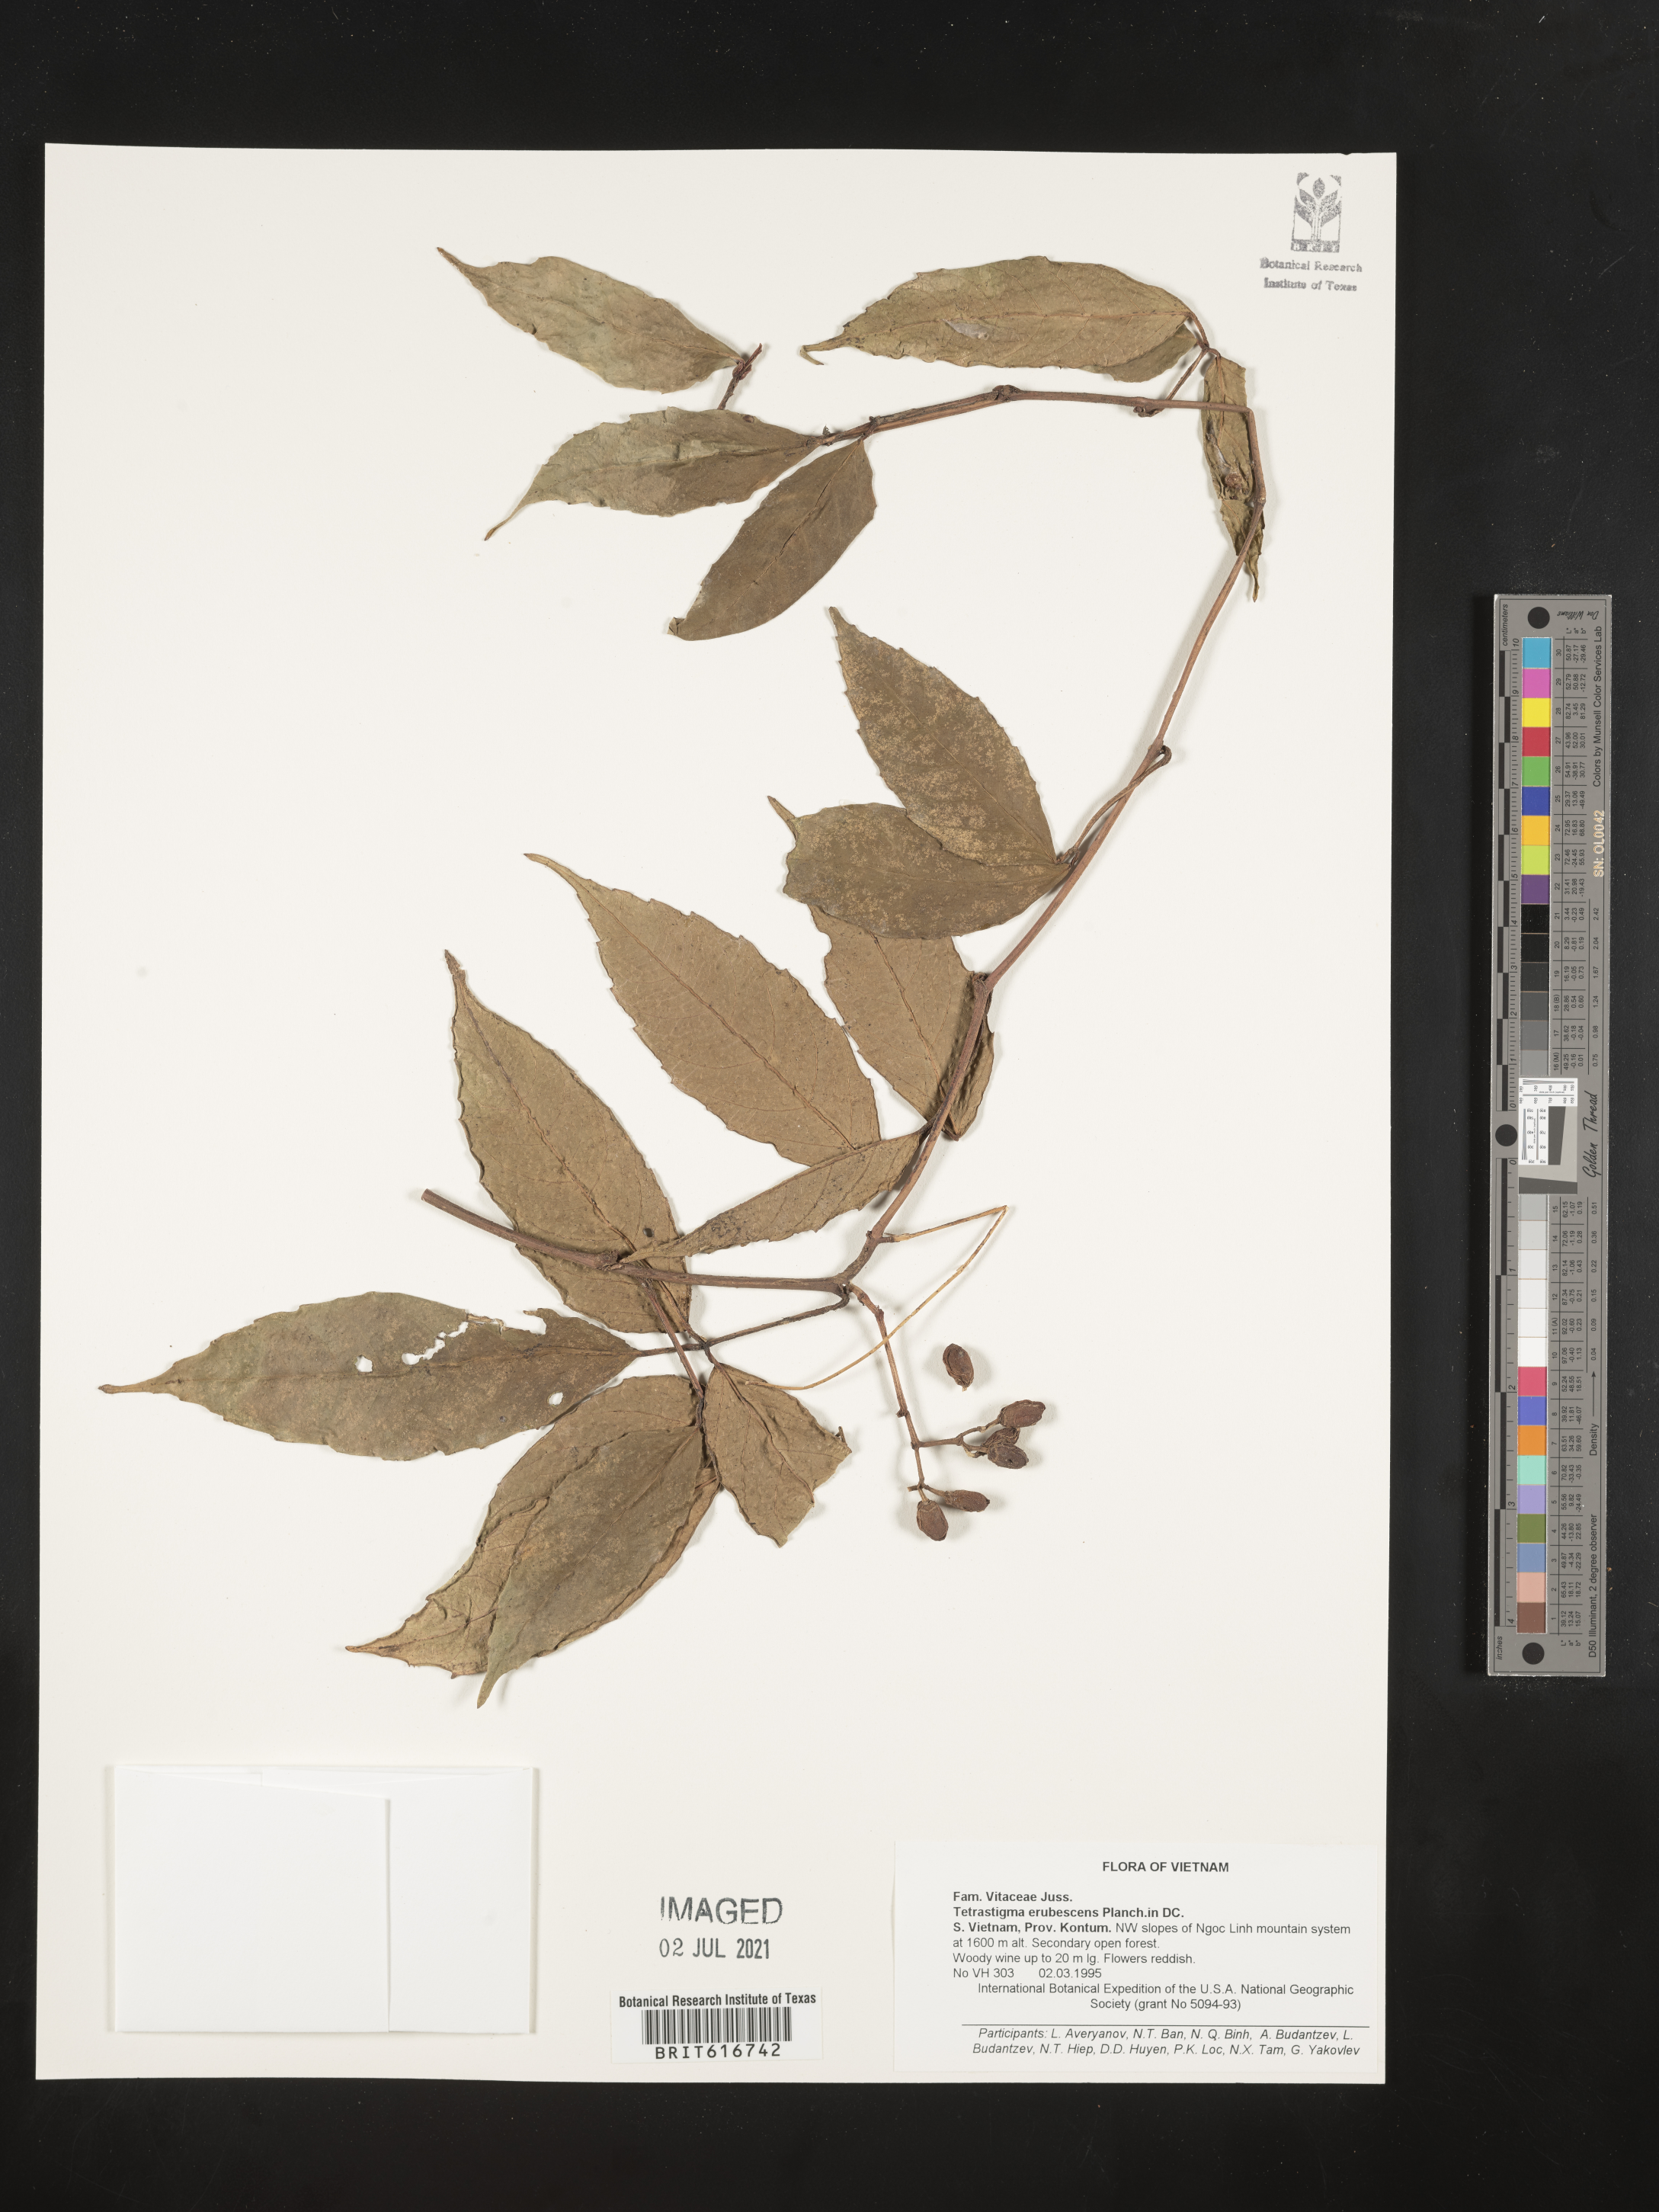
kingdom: Plantae
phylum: Tracheophyta
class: Magnoliopsida
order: Vitales
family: Vitaceae
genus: Tetrastigma
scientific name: Tetrastigma erubescens
